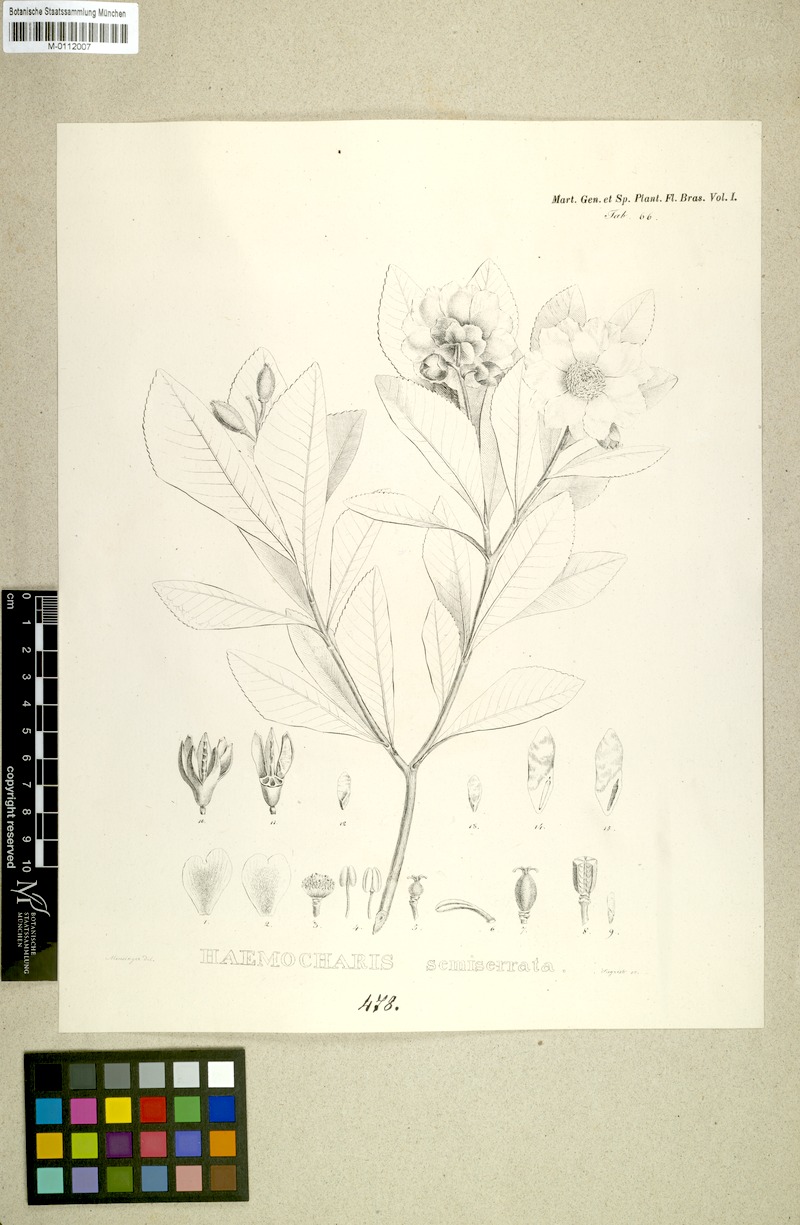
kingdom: Plantae
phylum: Tracheophyta
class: Magnoliopsida
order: Ericales
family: Theaceae
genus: Gordonia
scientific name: Gordonia fruticosa
